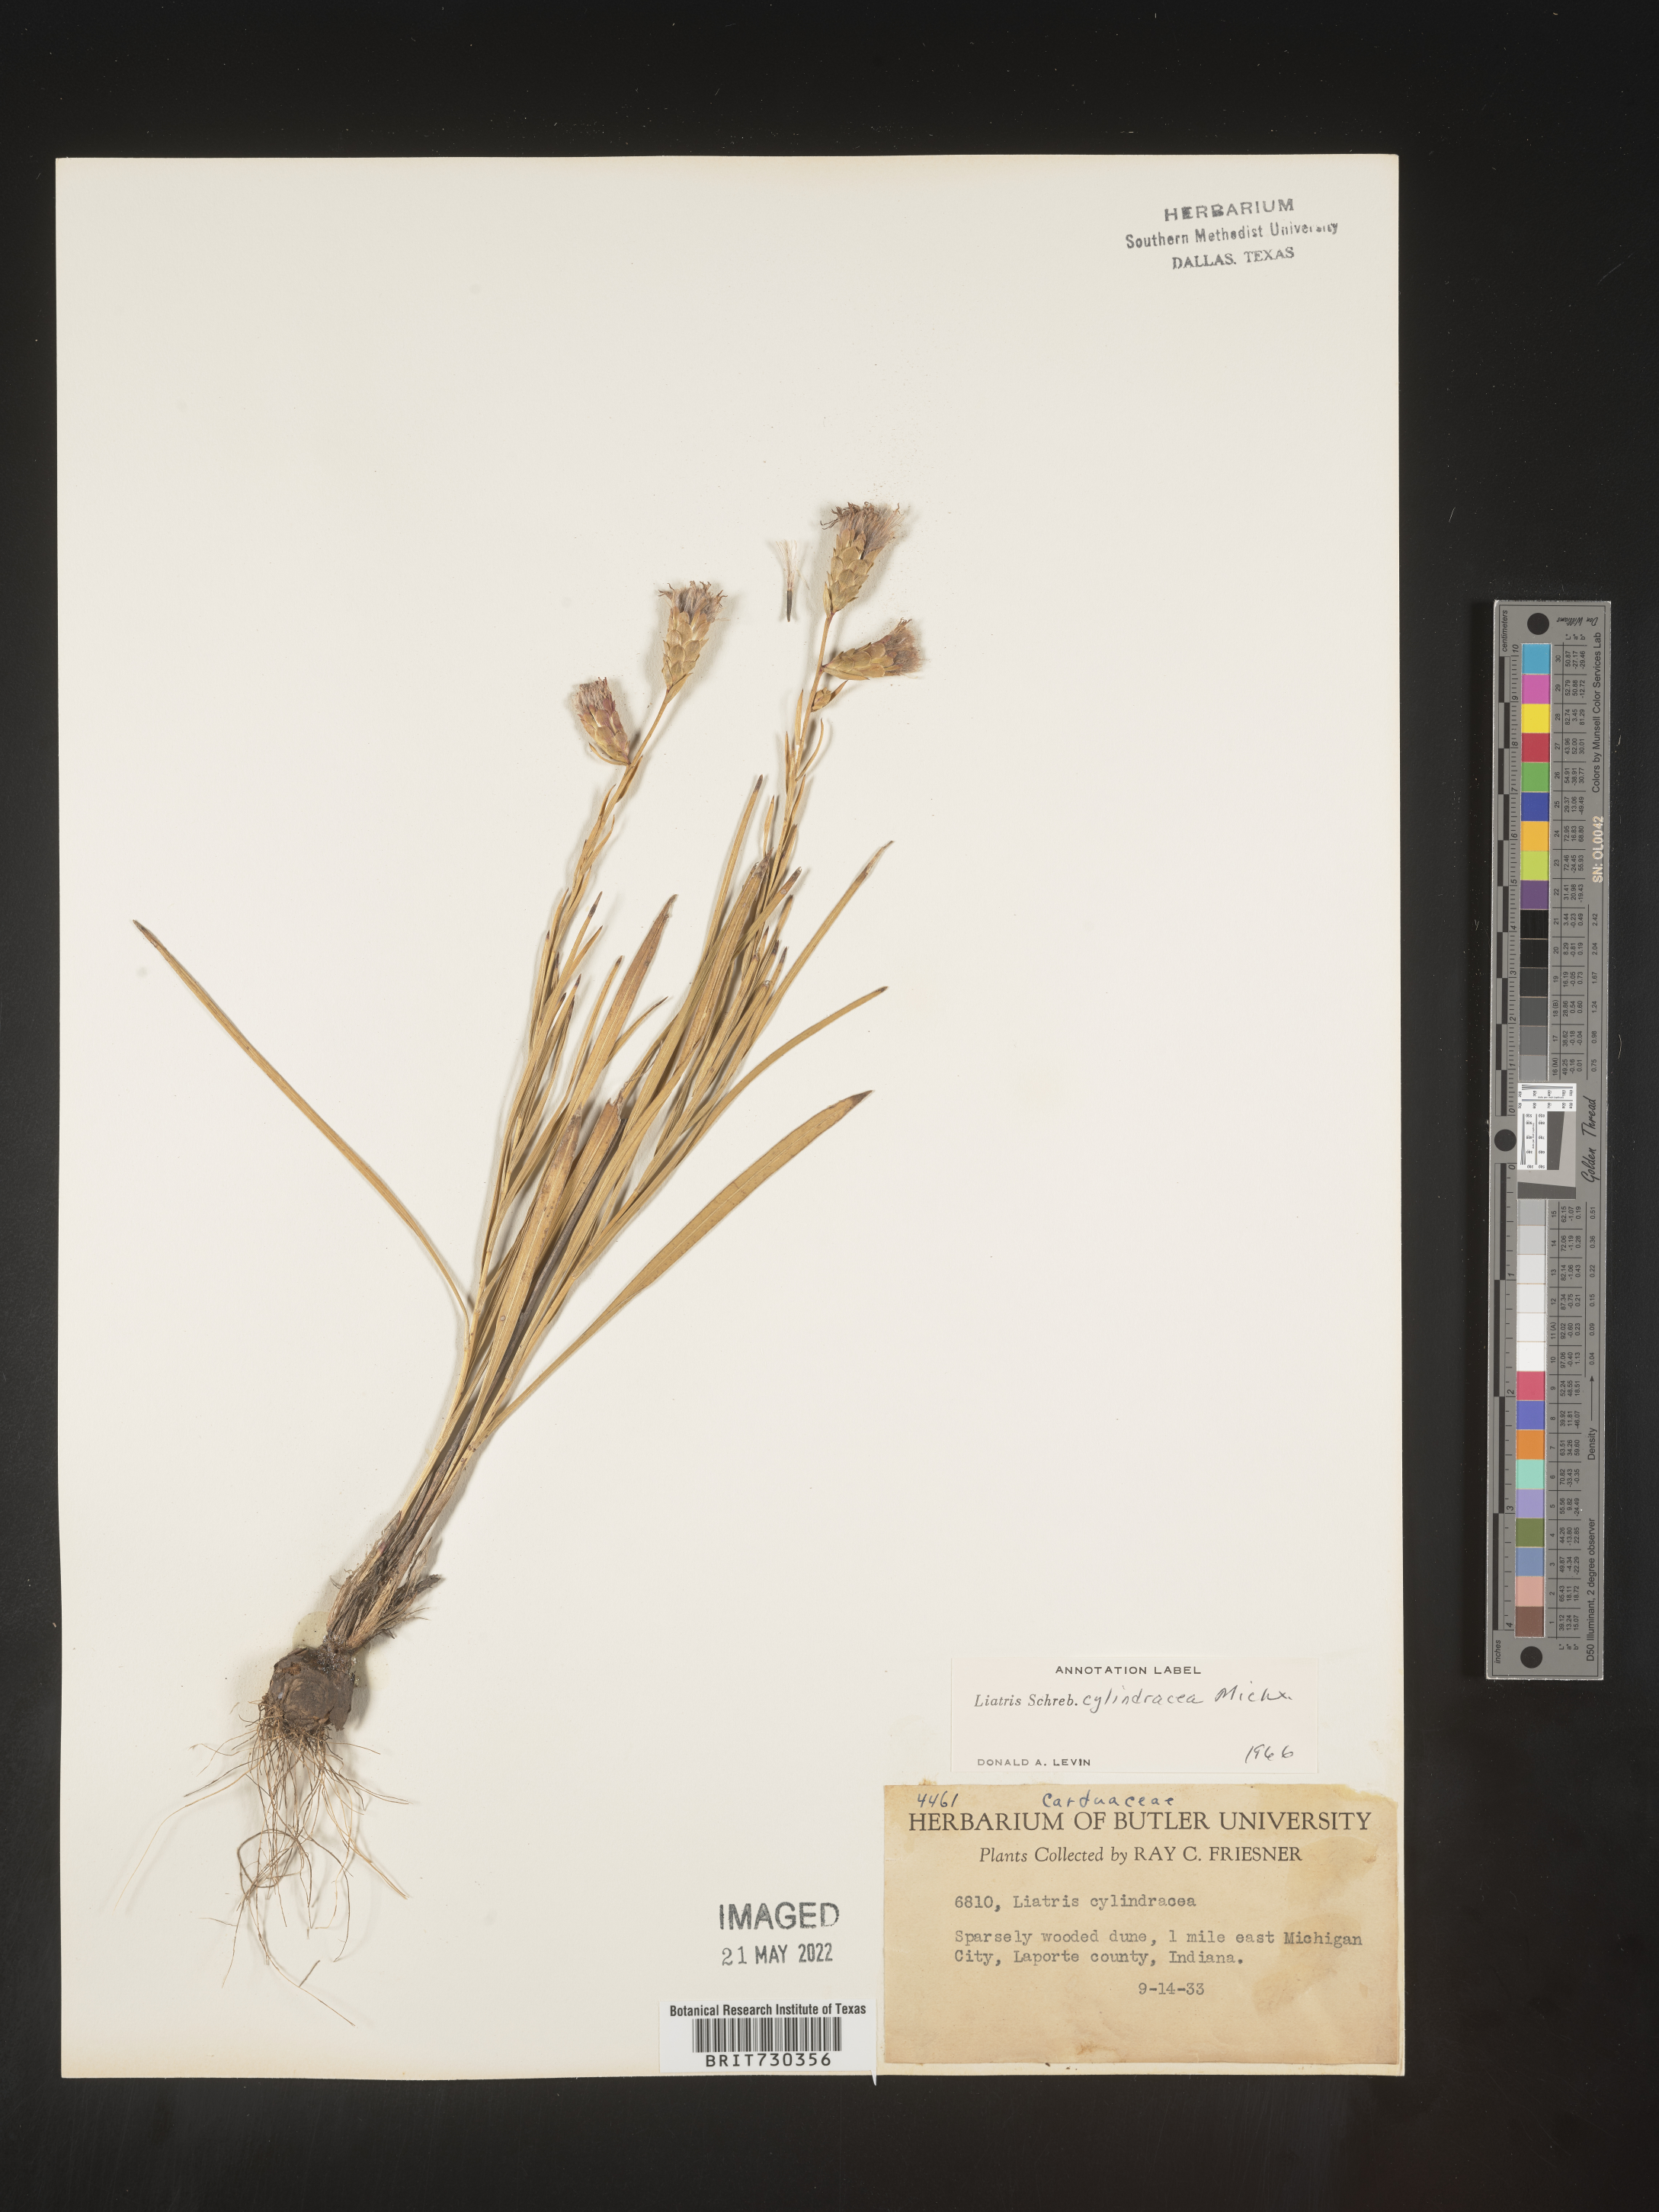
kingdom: Plantae
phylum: Tracheophyta
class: Magnoliopsida
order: Asterales
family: Asteraceae
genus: Liatris
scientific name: Liatris cylindracea
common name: Few-head blazingstar
